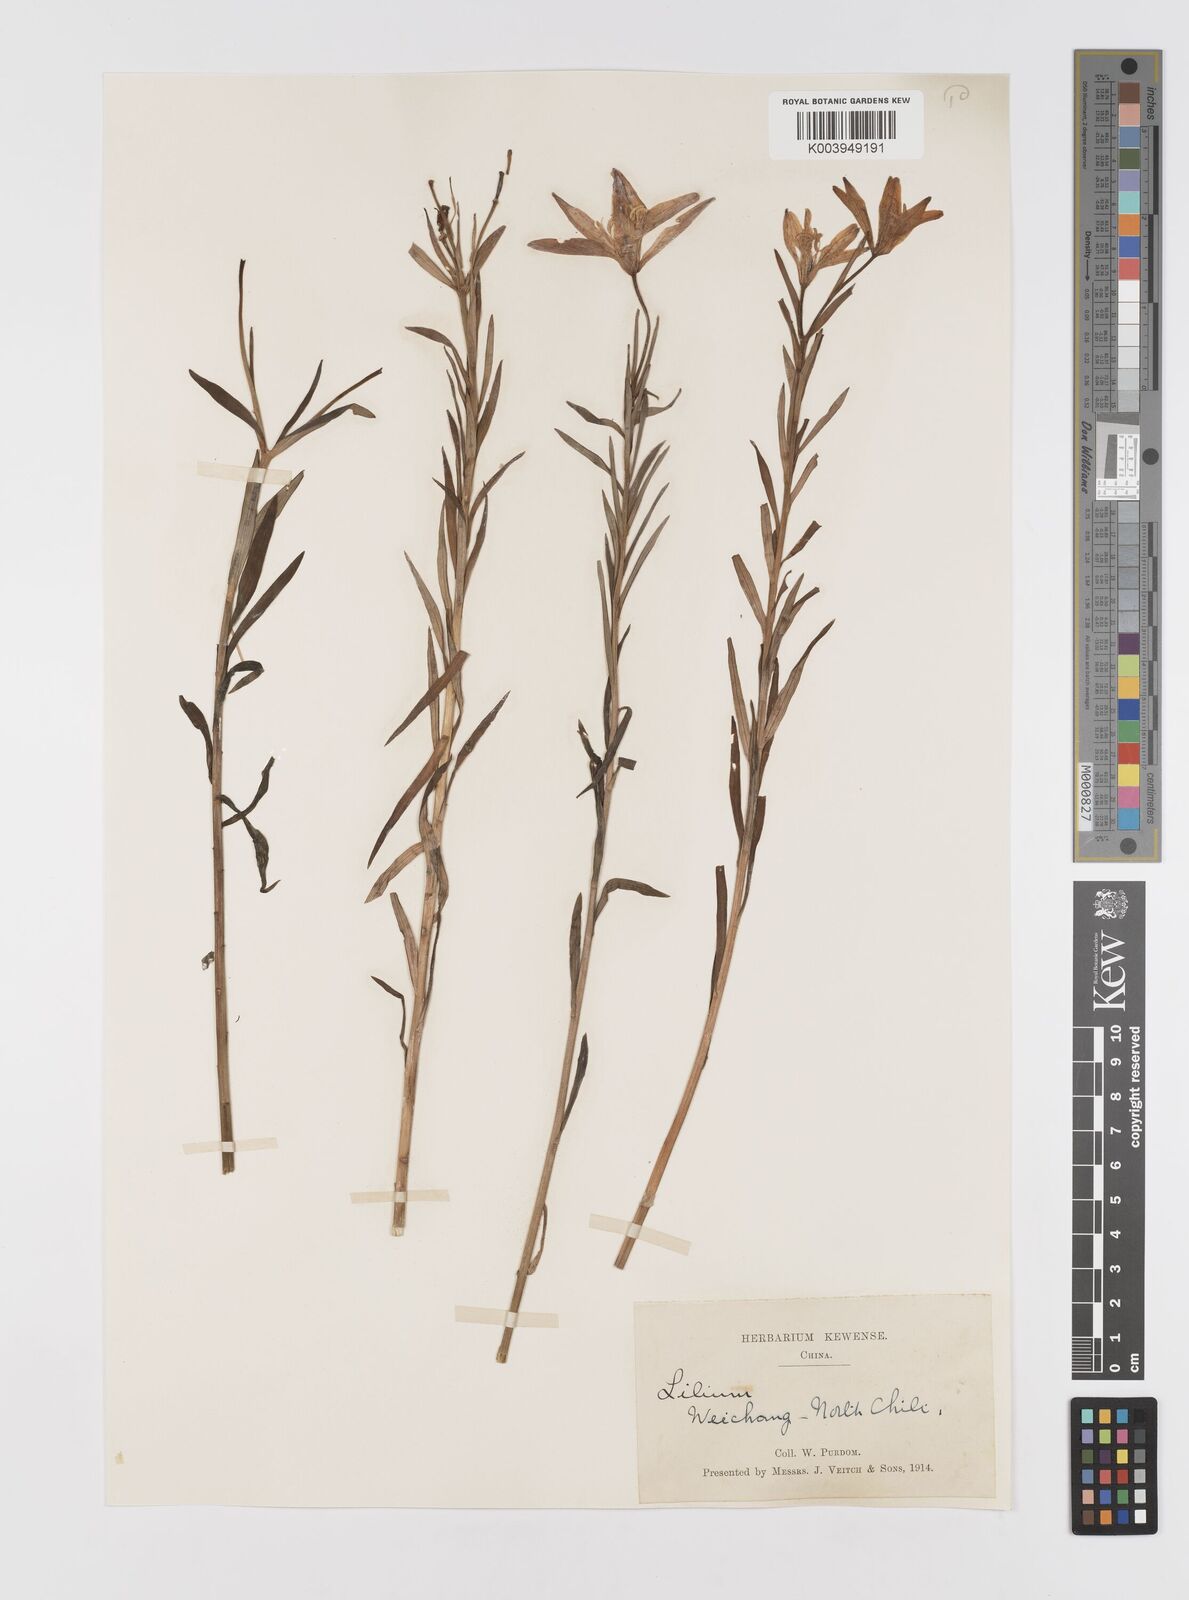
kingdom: Plantae
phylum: Tracheophyta
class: Liliopsida
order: Liliales
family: Liliaceae
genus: Lilium
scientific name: Lilium concolor
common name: Morning-star lily
